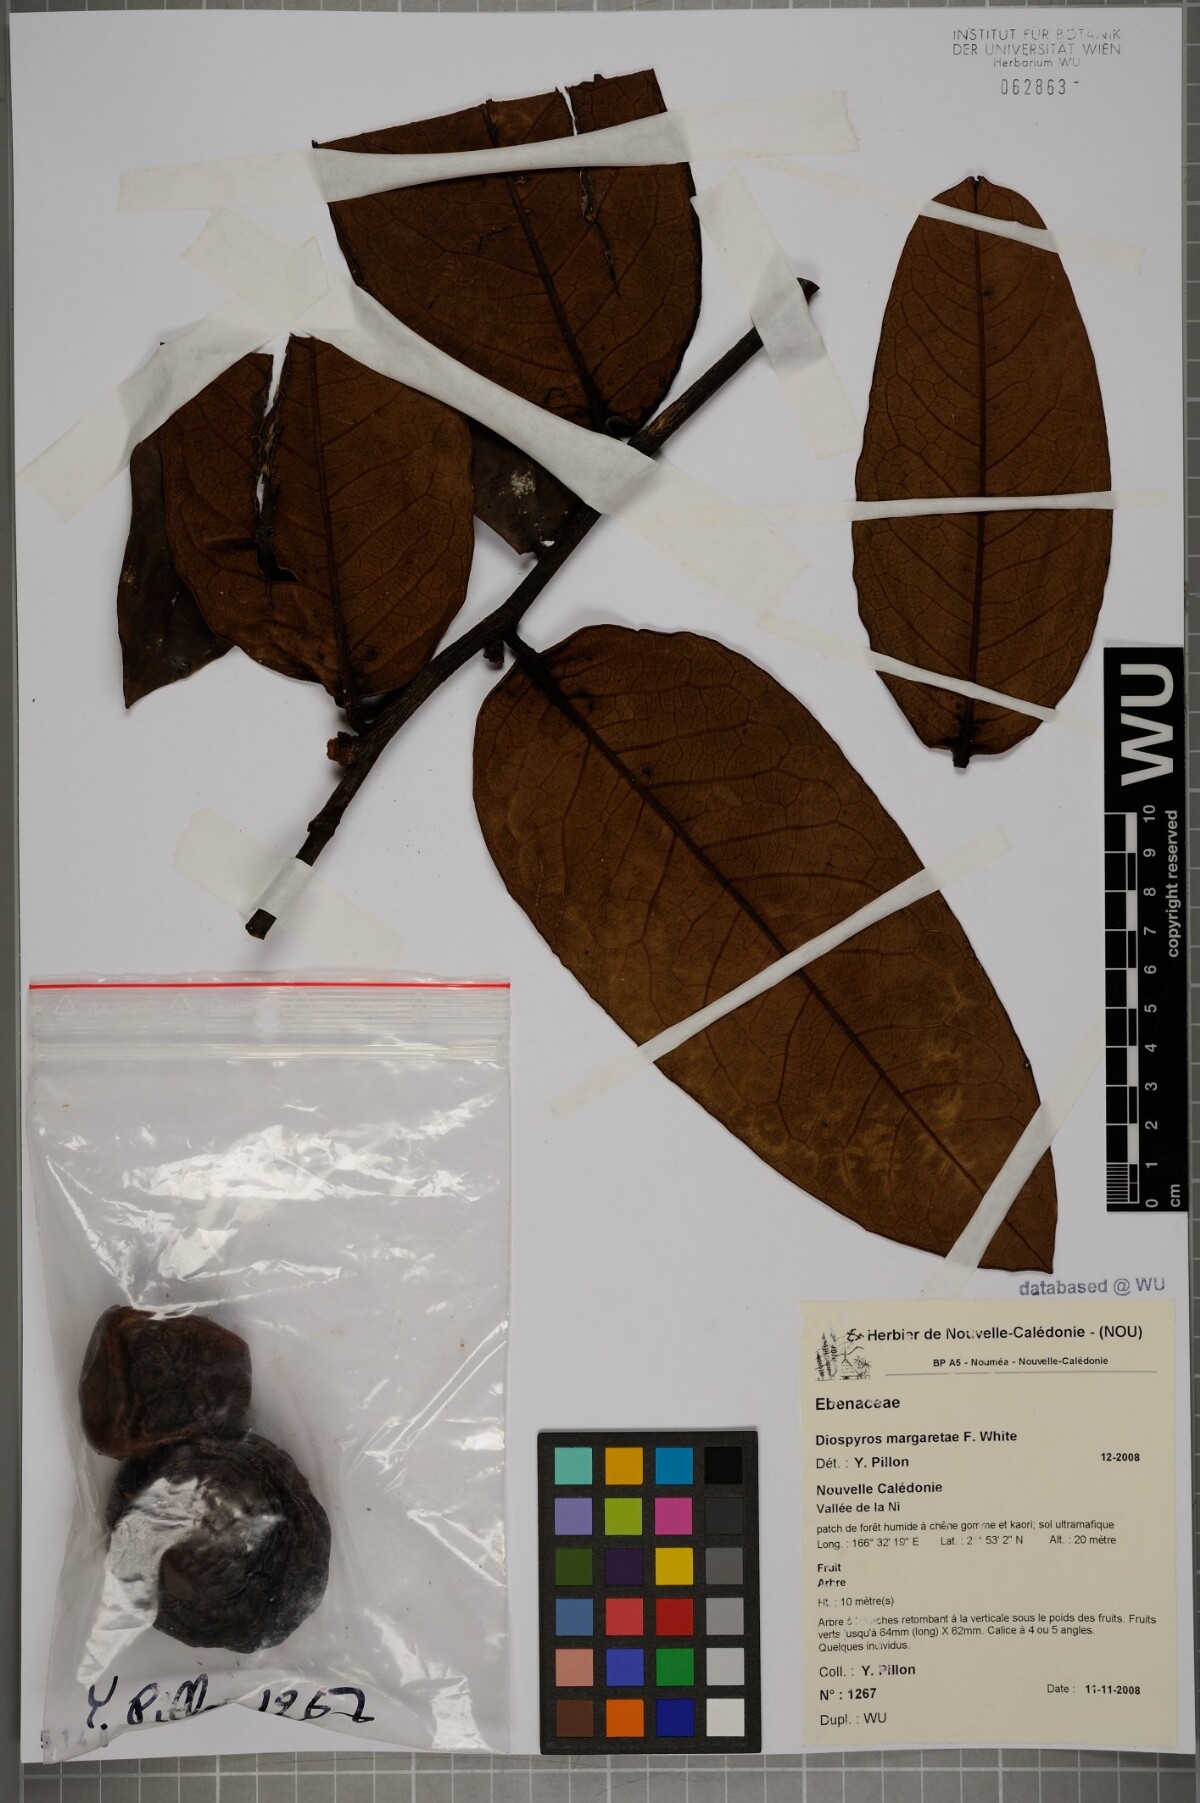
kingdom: Plantae
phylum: Tracheophyta
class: Magnoliopsida
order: Ericales
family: Ebenaceae
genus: Diospyros
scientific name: Diospyros margaretae
